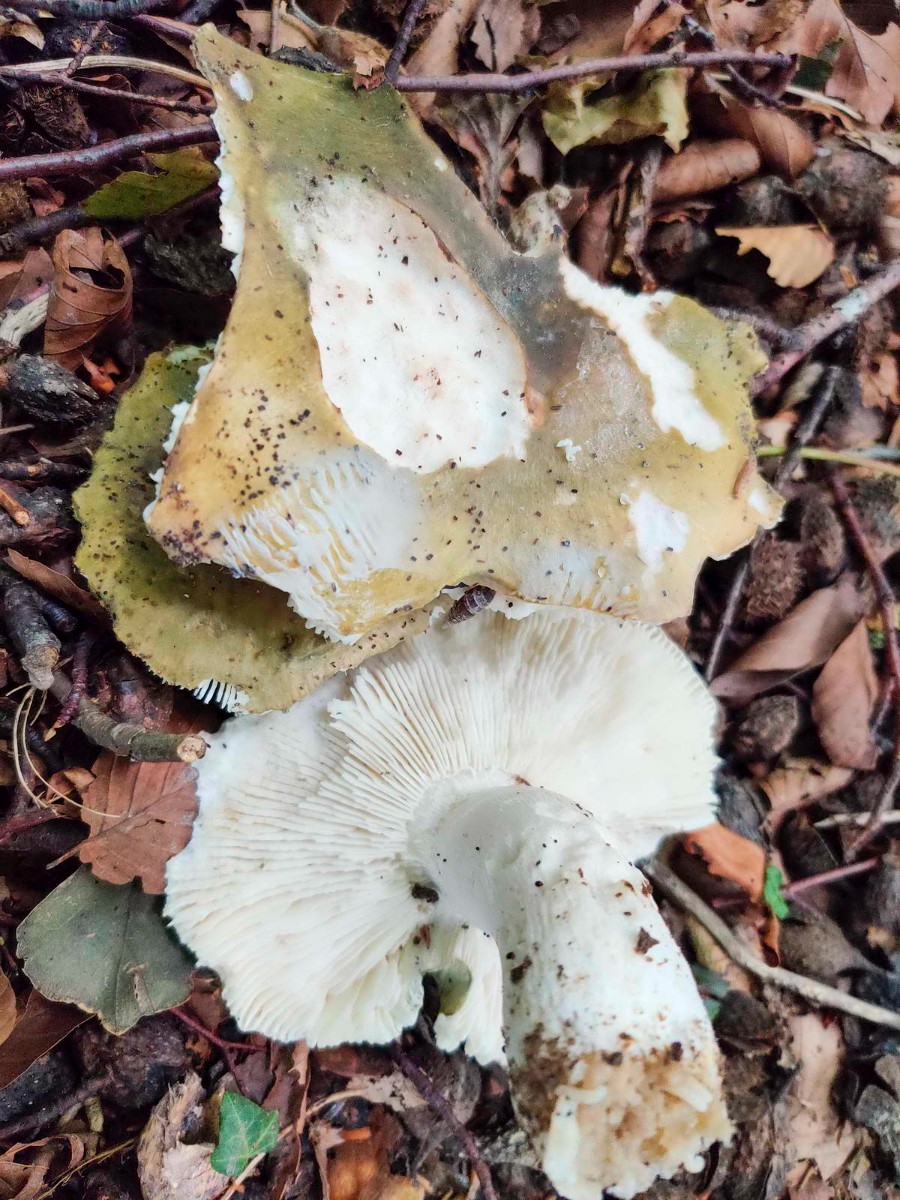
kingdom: Fungi
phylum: Basidiomycota
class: Agaricomycetes
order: Russulales
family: Russulaceae
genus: Russula
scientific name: Russula heterophylla
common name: gaffelbladet skørhat
